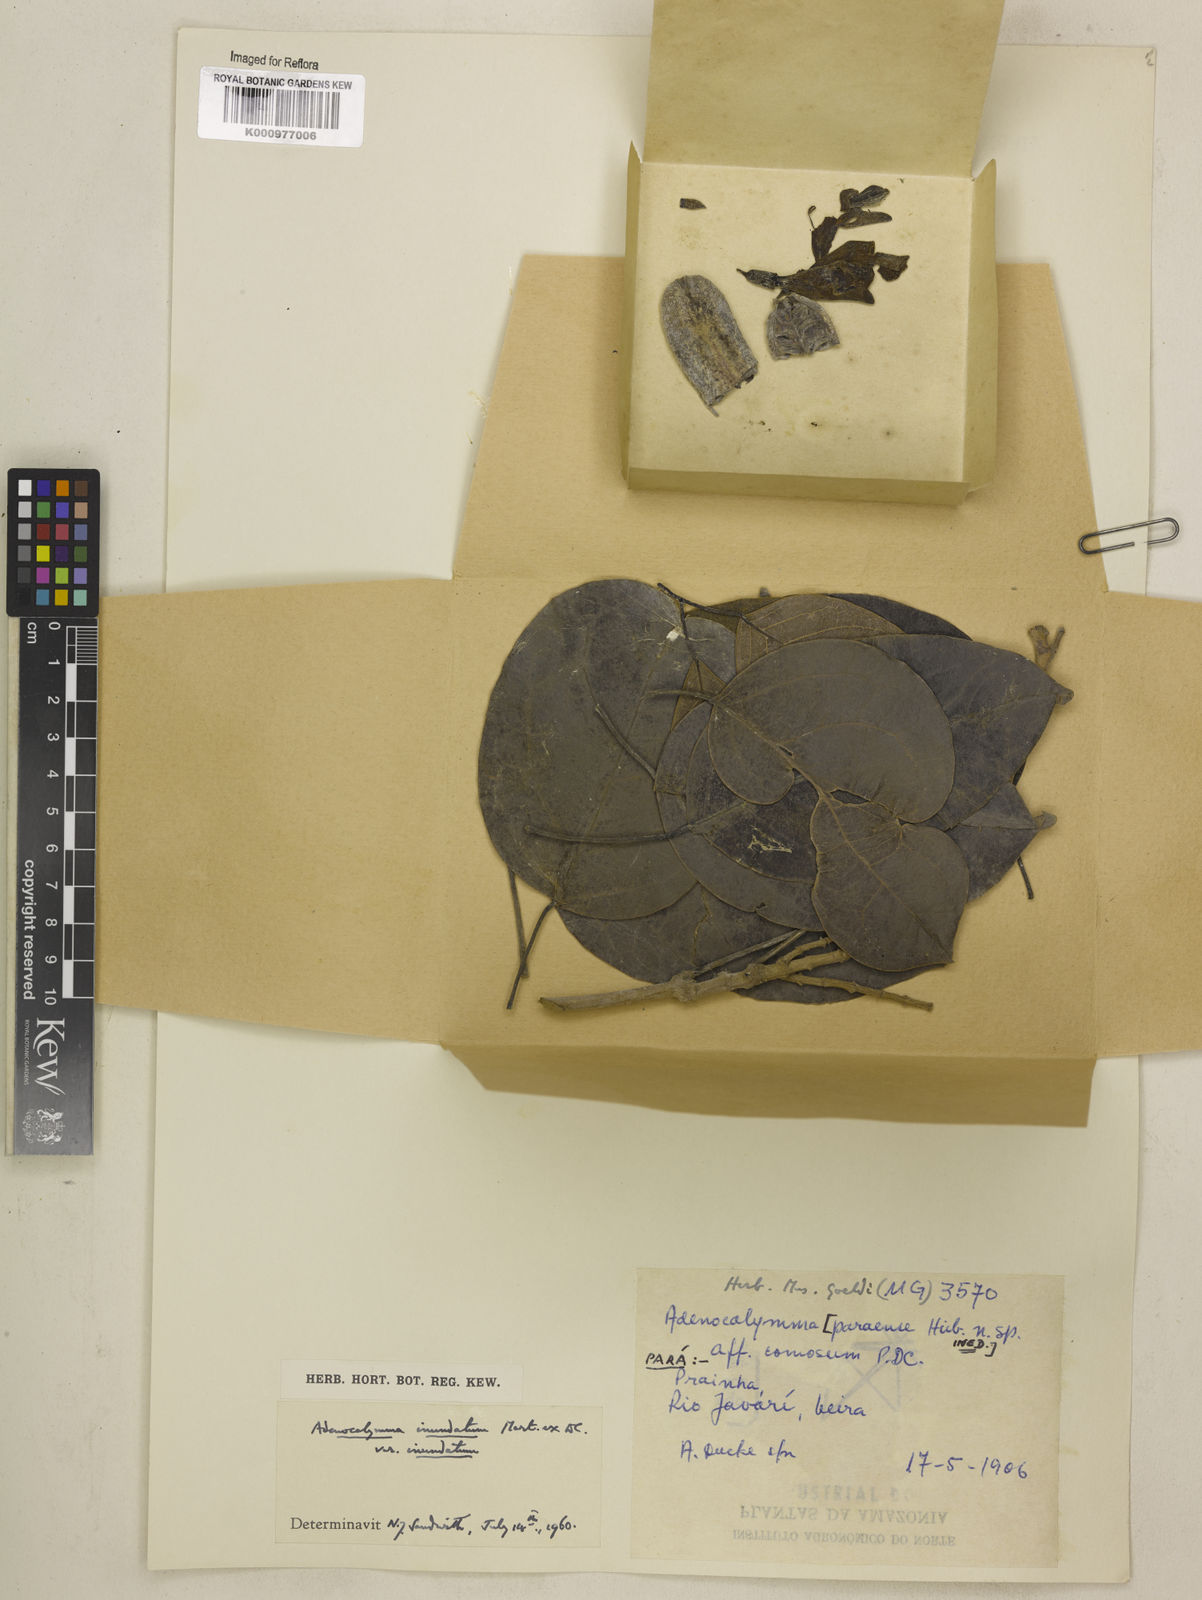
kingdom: Plantae
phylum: Tracheophyta
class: Magnoliopsida
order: Lamiales
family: Bignoniaceae
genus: Adenocalymma
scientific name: Adenocalymma inundatum
